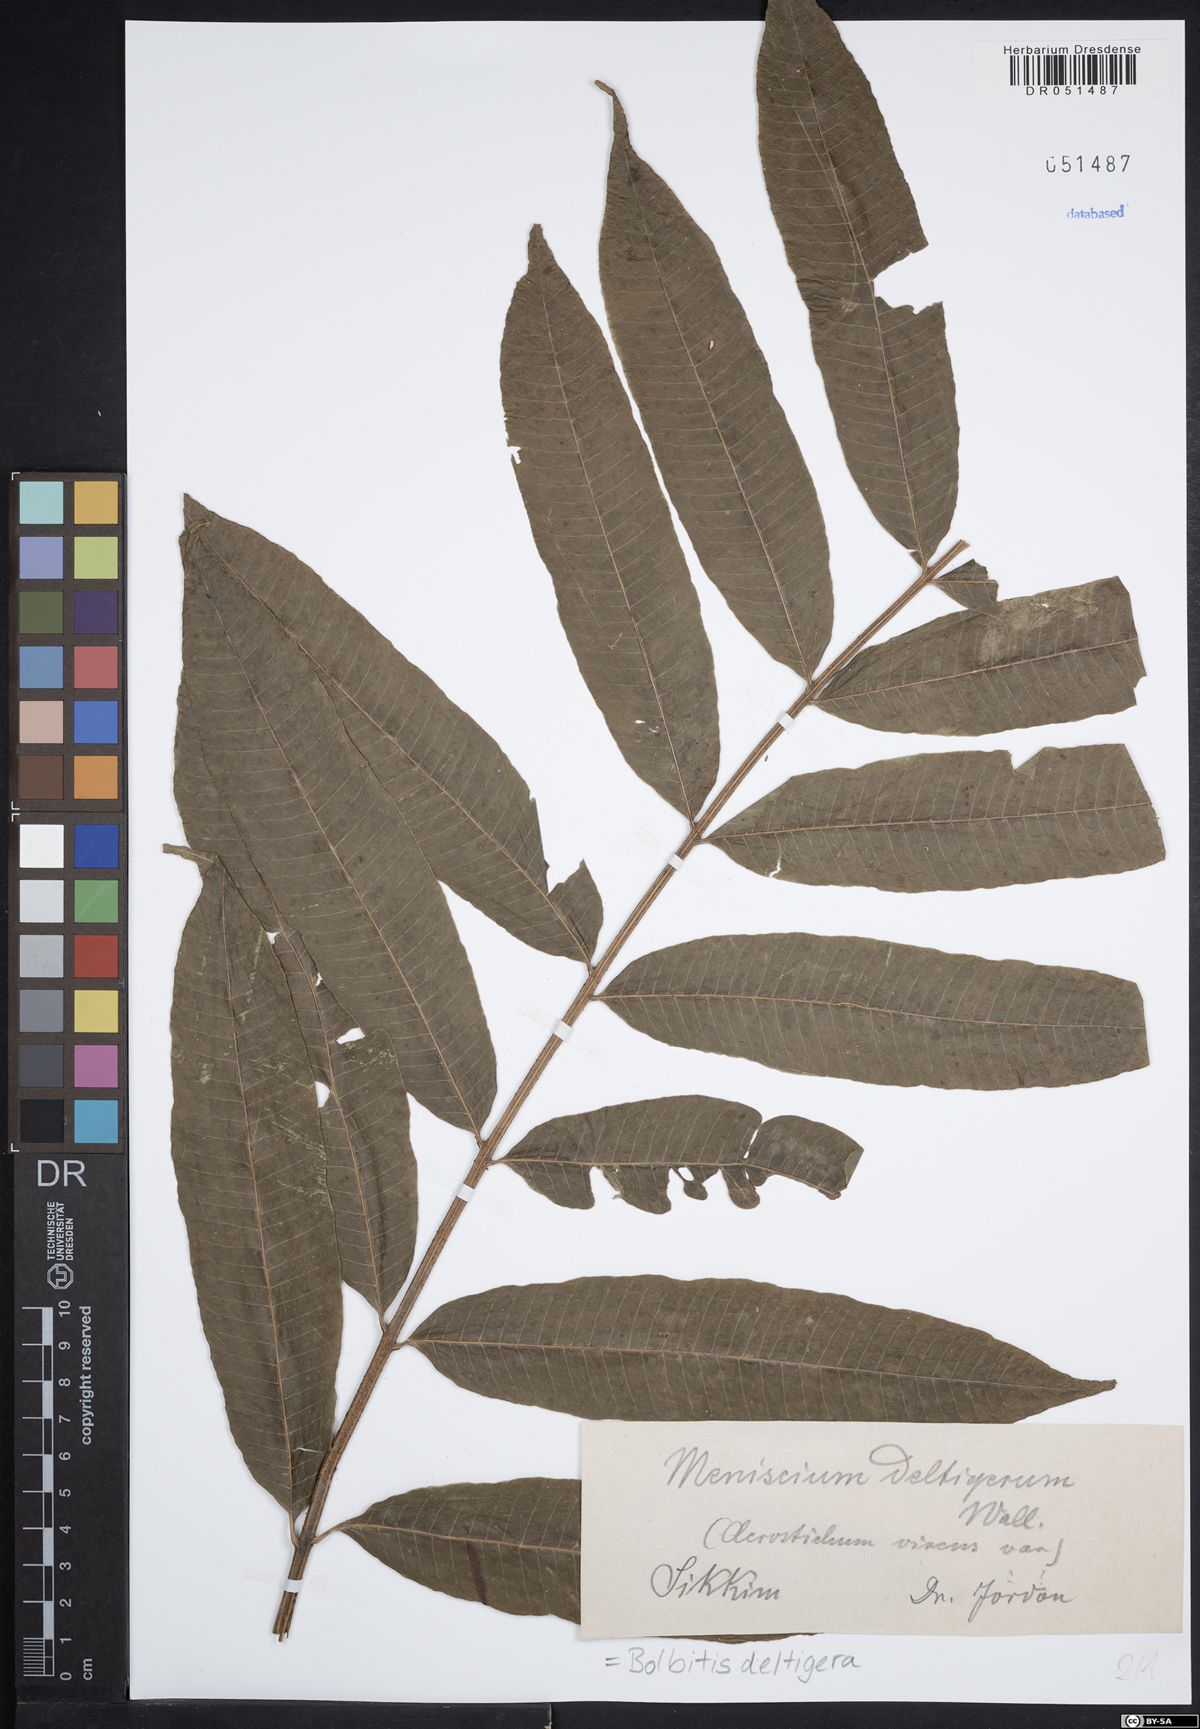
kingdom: Plantae
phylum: Tracheophyta
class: Polypodiopsida
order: Polypodiales
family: Dryopteridaceae
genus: Bolbitis
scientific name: Bolbitis deltigera
